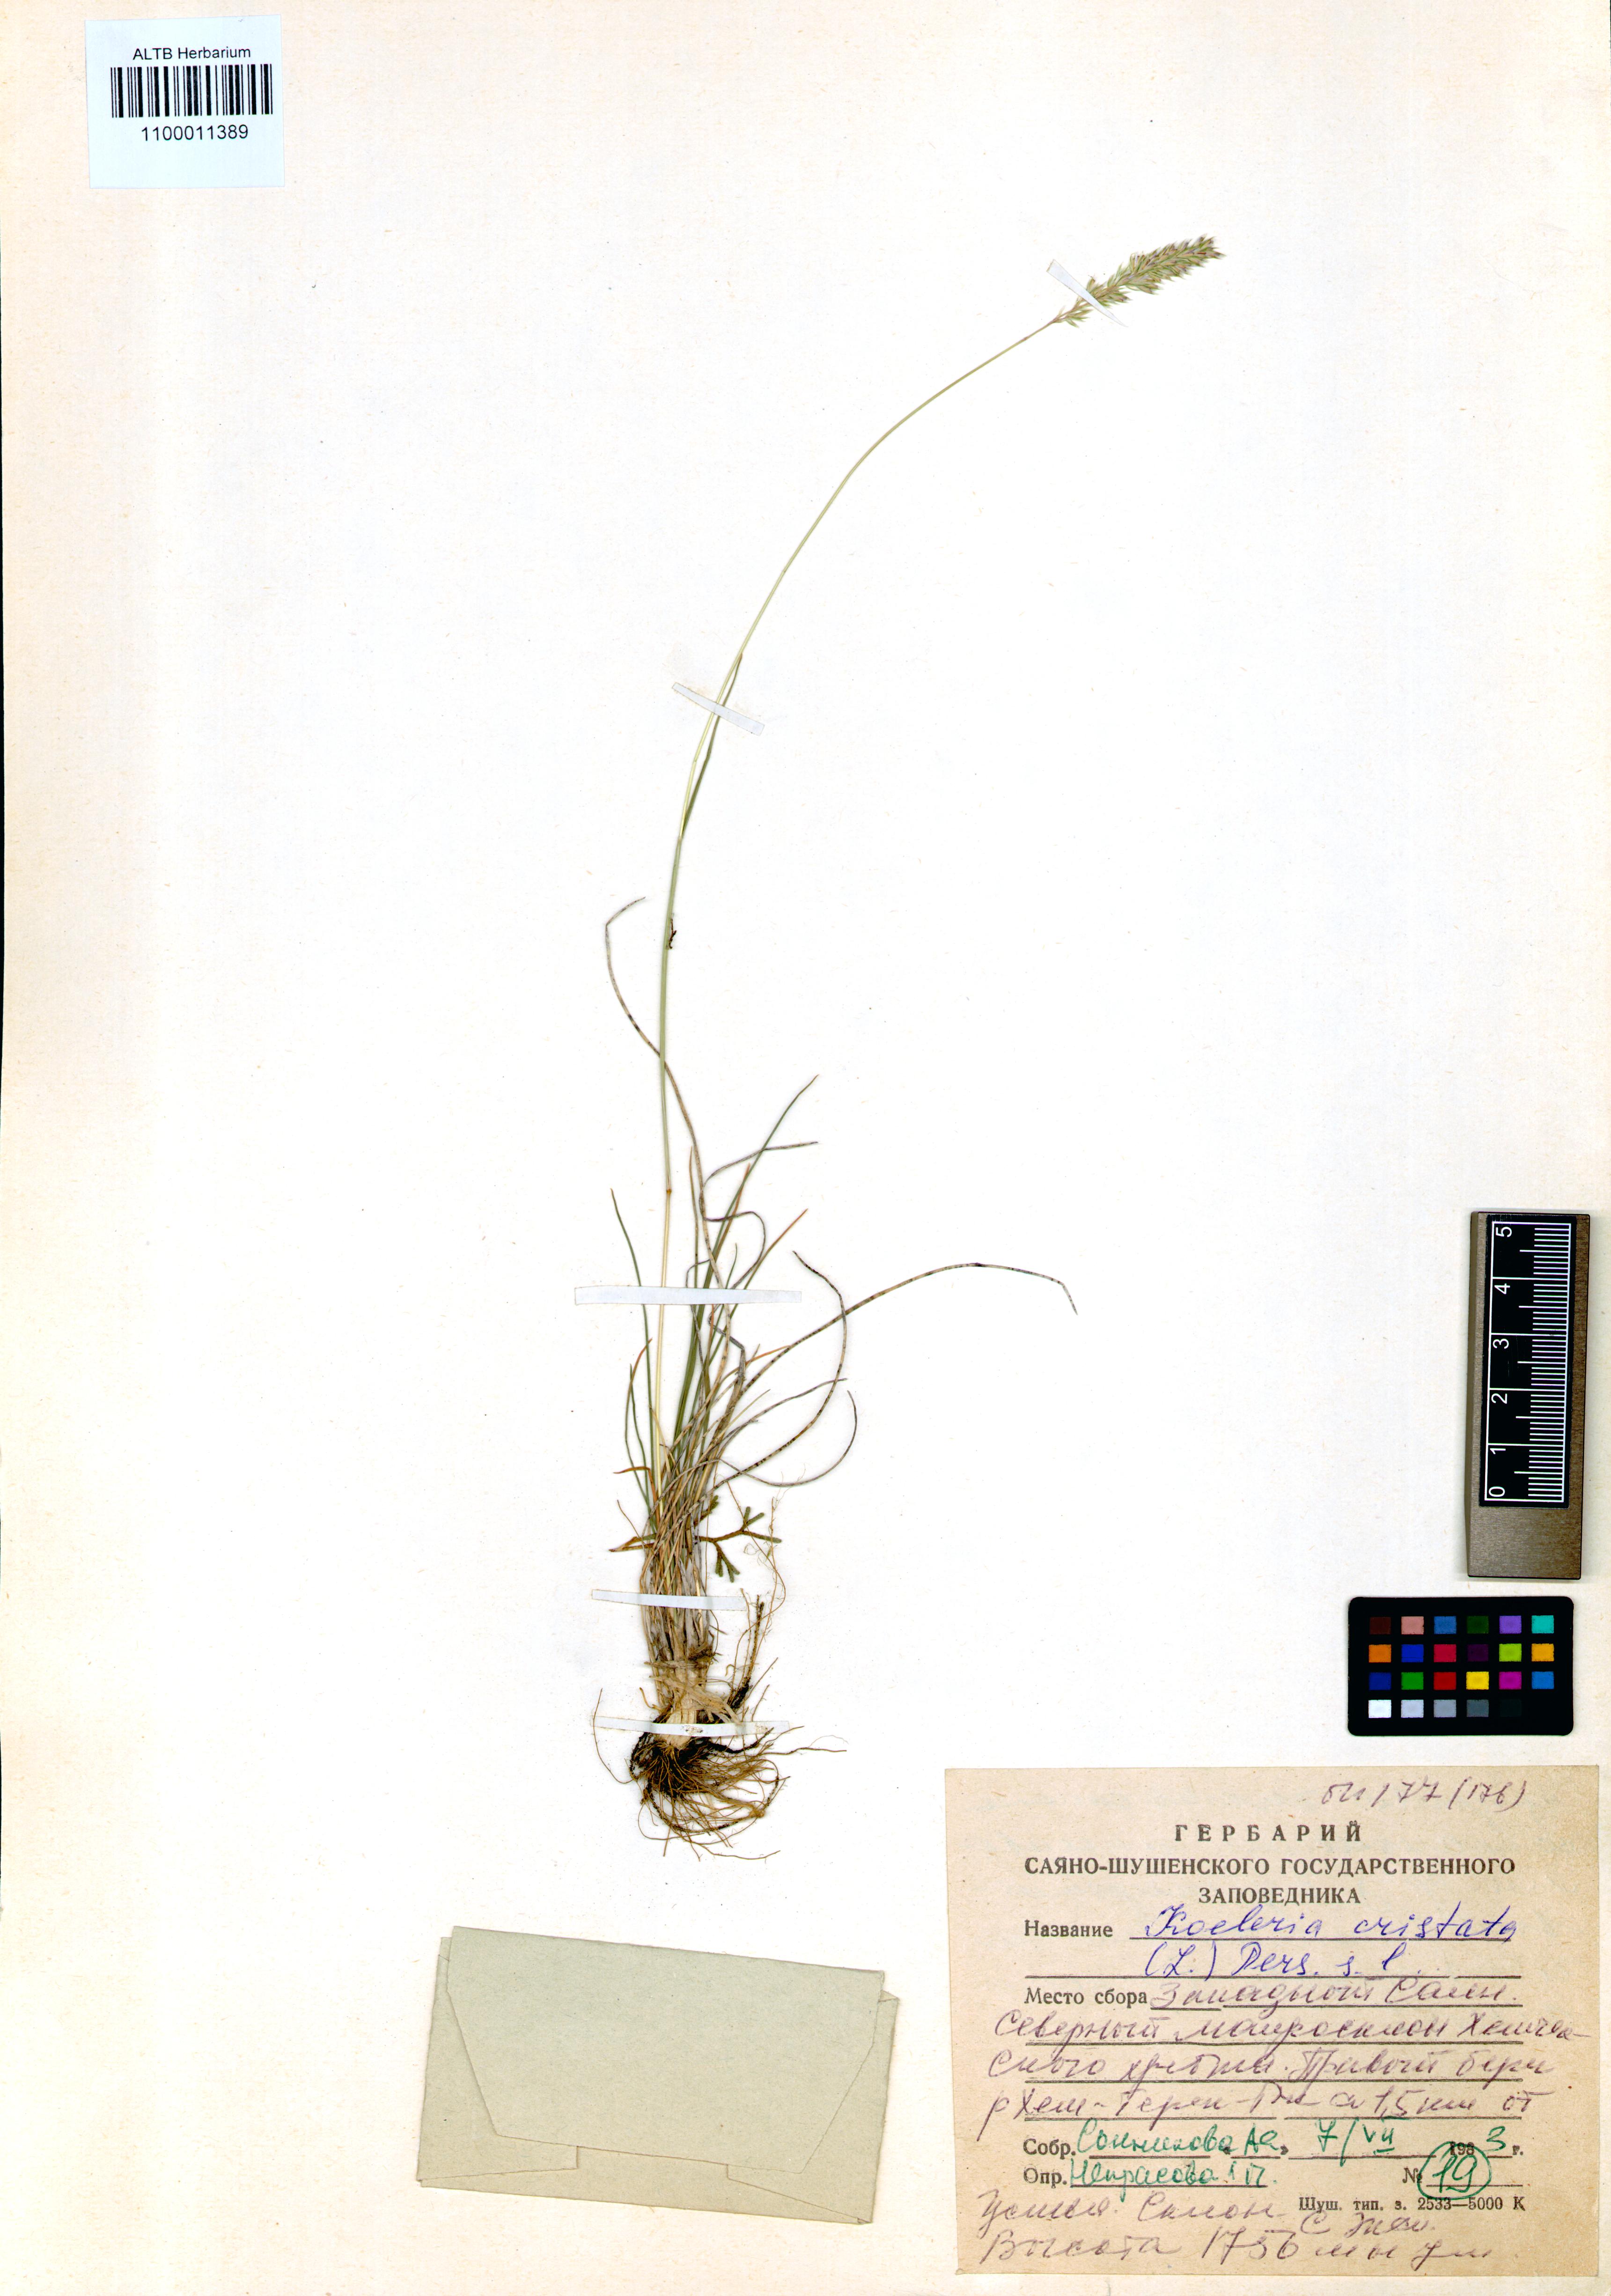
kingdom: Plantae
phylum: Tracheophyta
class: Liliopsida
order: Poales
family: Poaceae
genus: Koeleria
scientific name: Koeleria pyramidata
